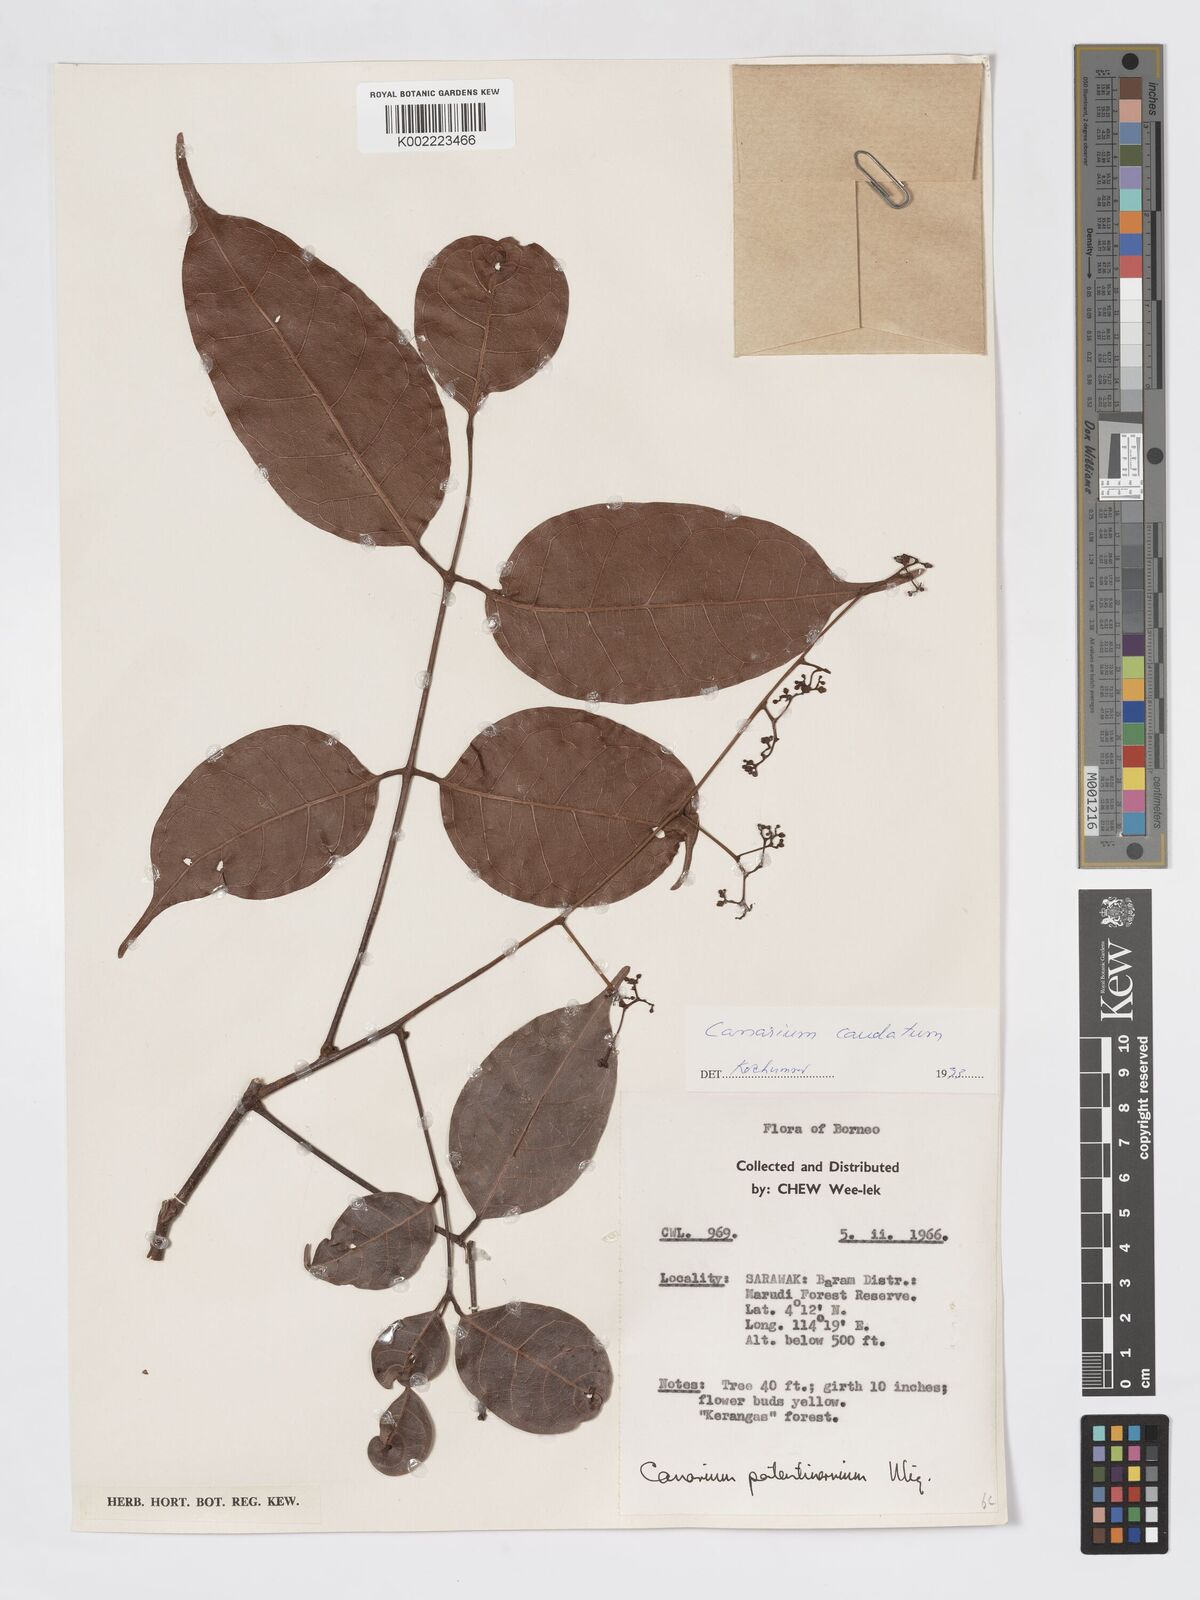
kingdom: Plantae
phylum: Tracheophyta
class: Magnoliopsida
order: Sapindales
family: Burseraceae
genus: Canarium
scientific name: Canarium caudatum
